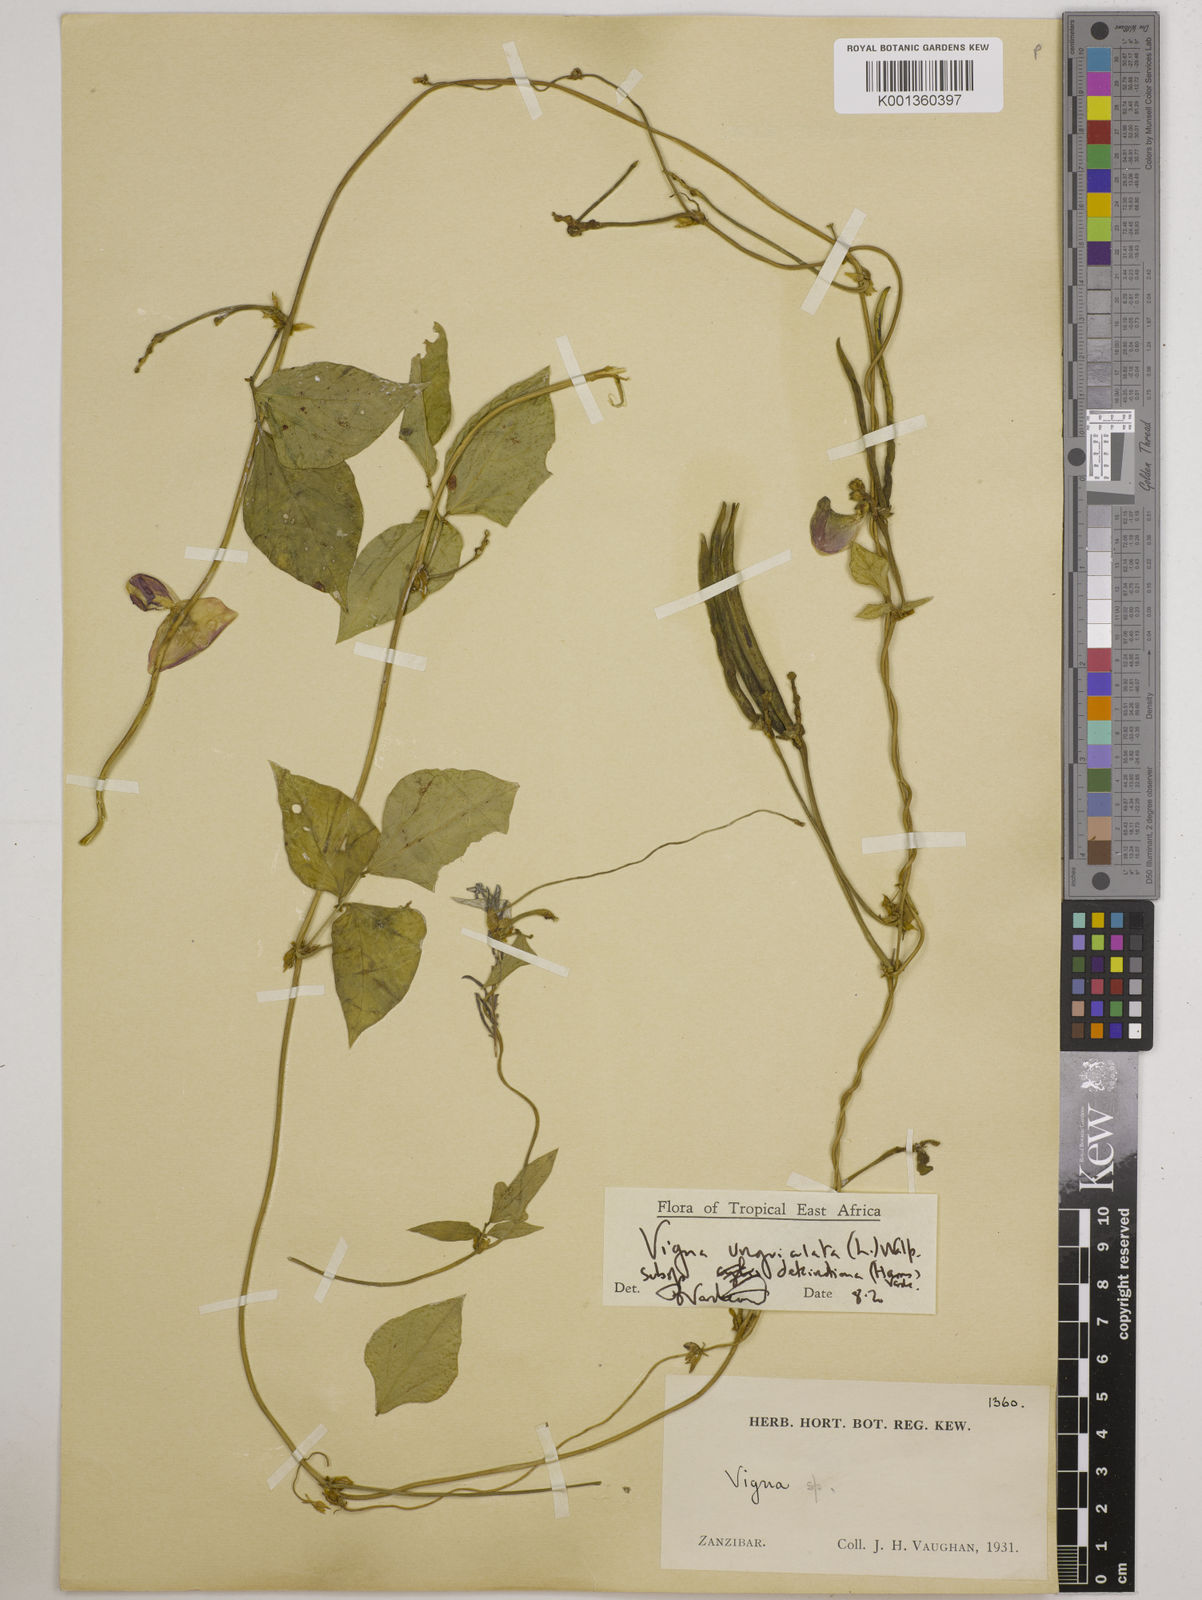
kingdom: Plantae
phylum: Tracheophyta
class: Magnoliopsida
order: Fabales
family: Fabaceae
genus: Vigna
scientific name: Vigna
